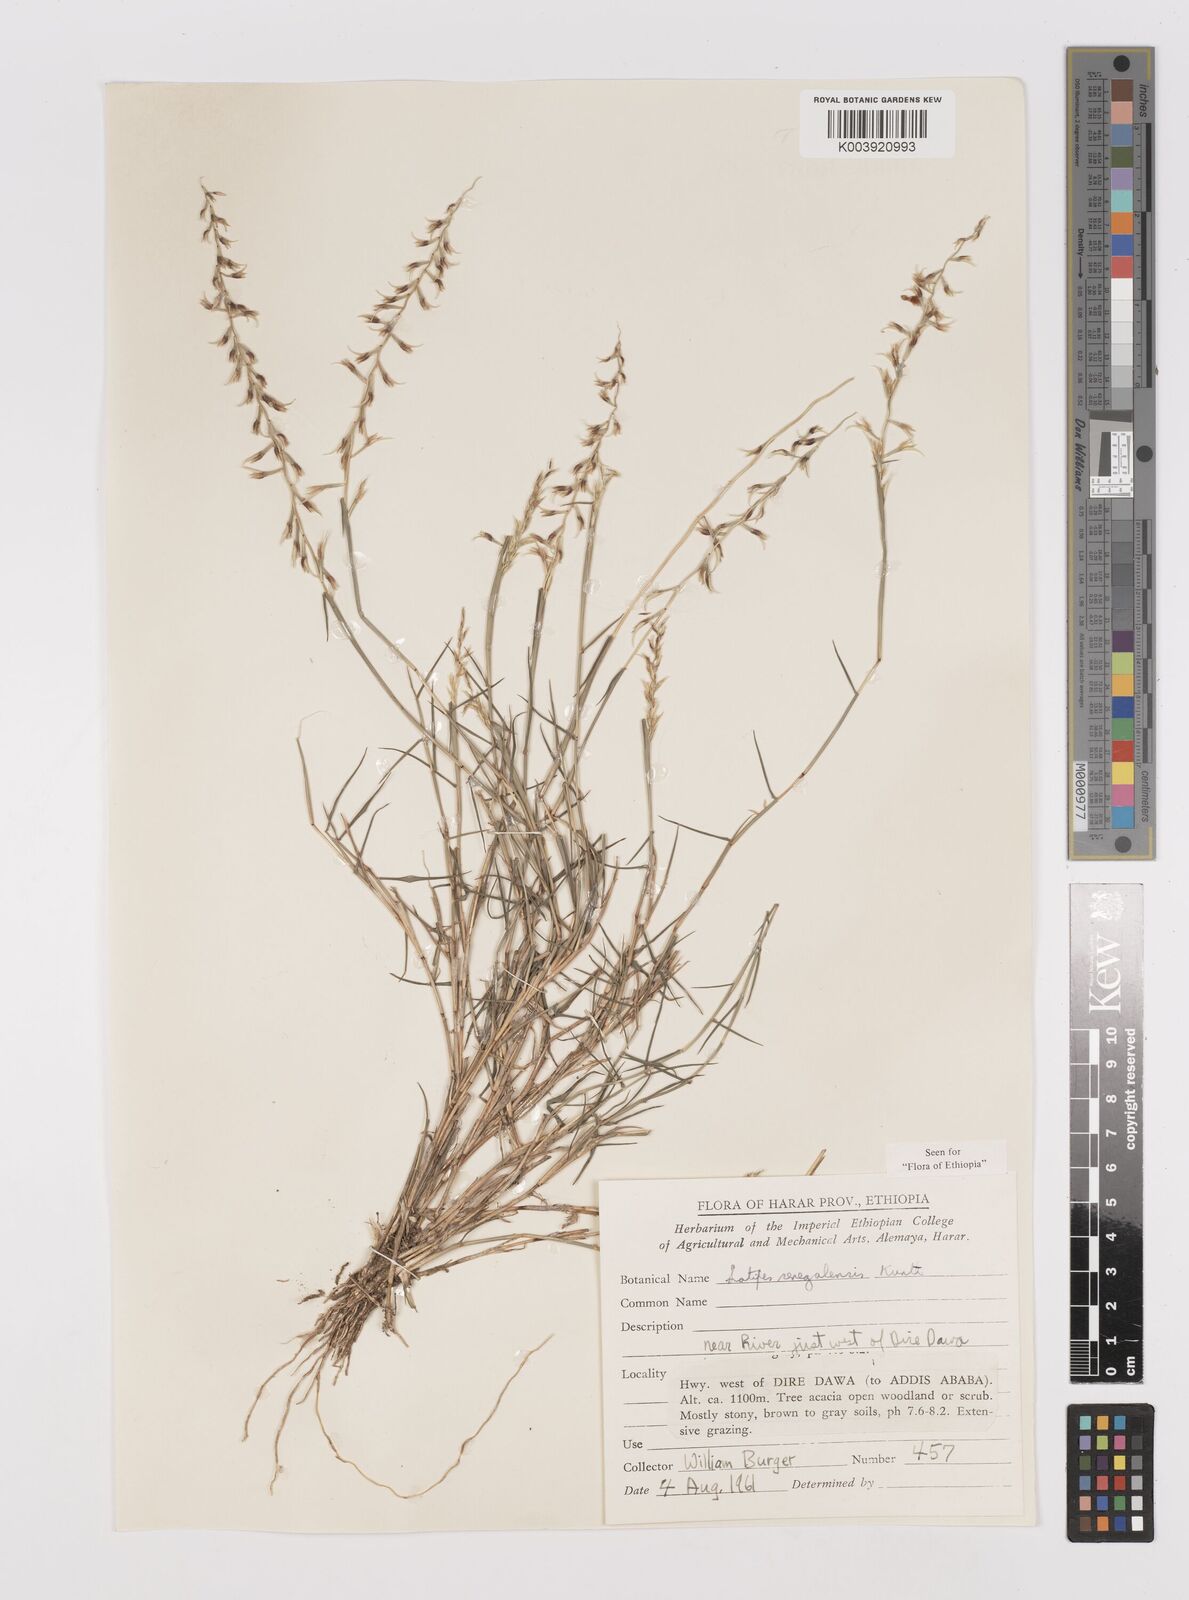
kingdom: Plantae
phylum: Tracheophyta
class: Liliopsida
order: Poales
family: Poaceae
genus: Leptothrium
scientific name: Leptothrium senegalense
